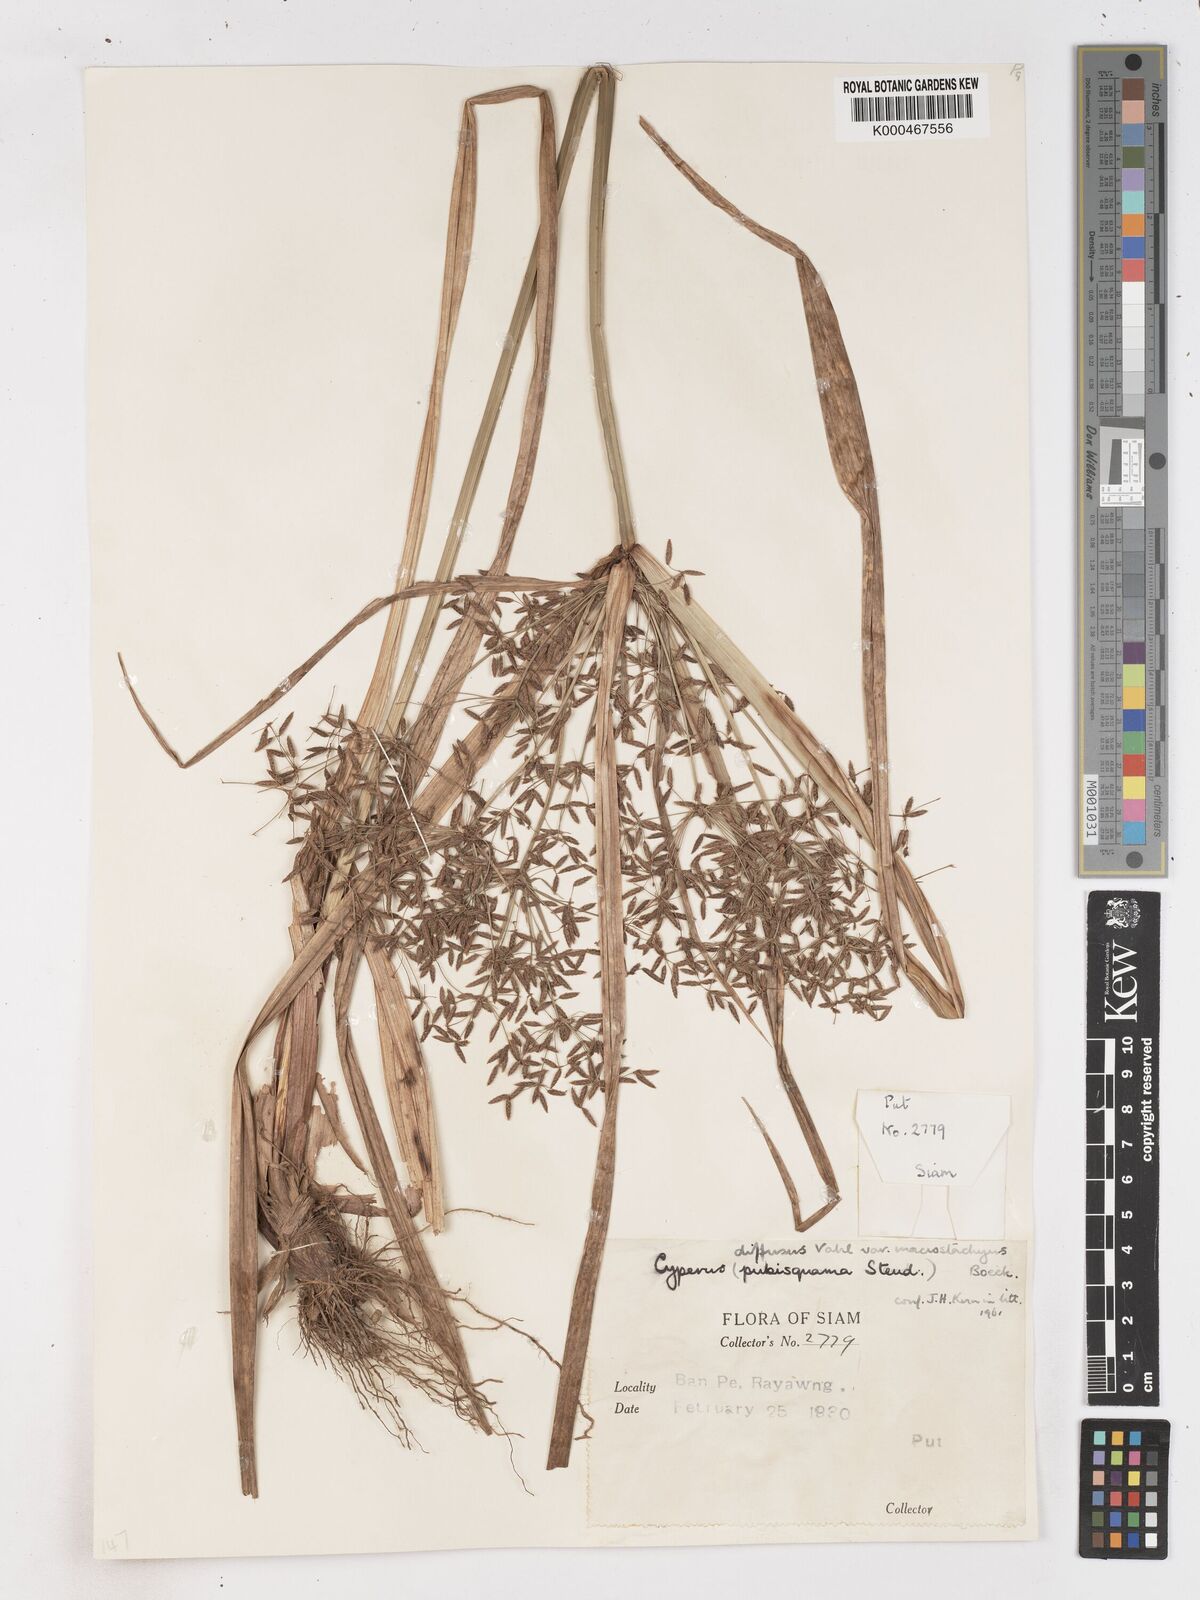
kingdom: Plantae
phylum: Tracheophyta
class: Liliopsida
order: Poales
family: Cyperaceae
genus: Cyperus
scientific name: Cyperus diffusus
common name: Dwarf umbrella grass
